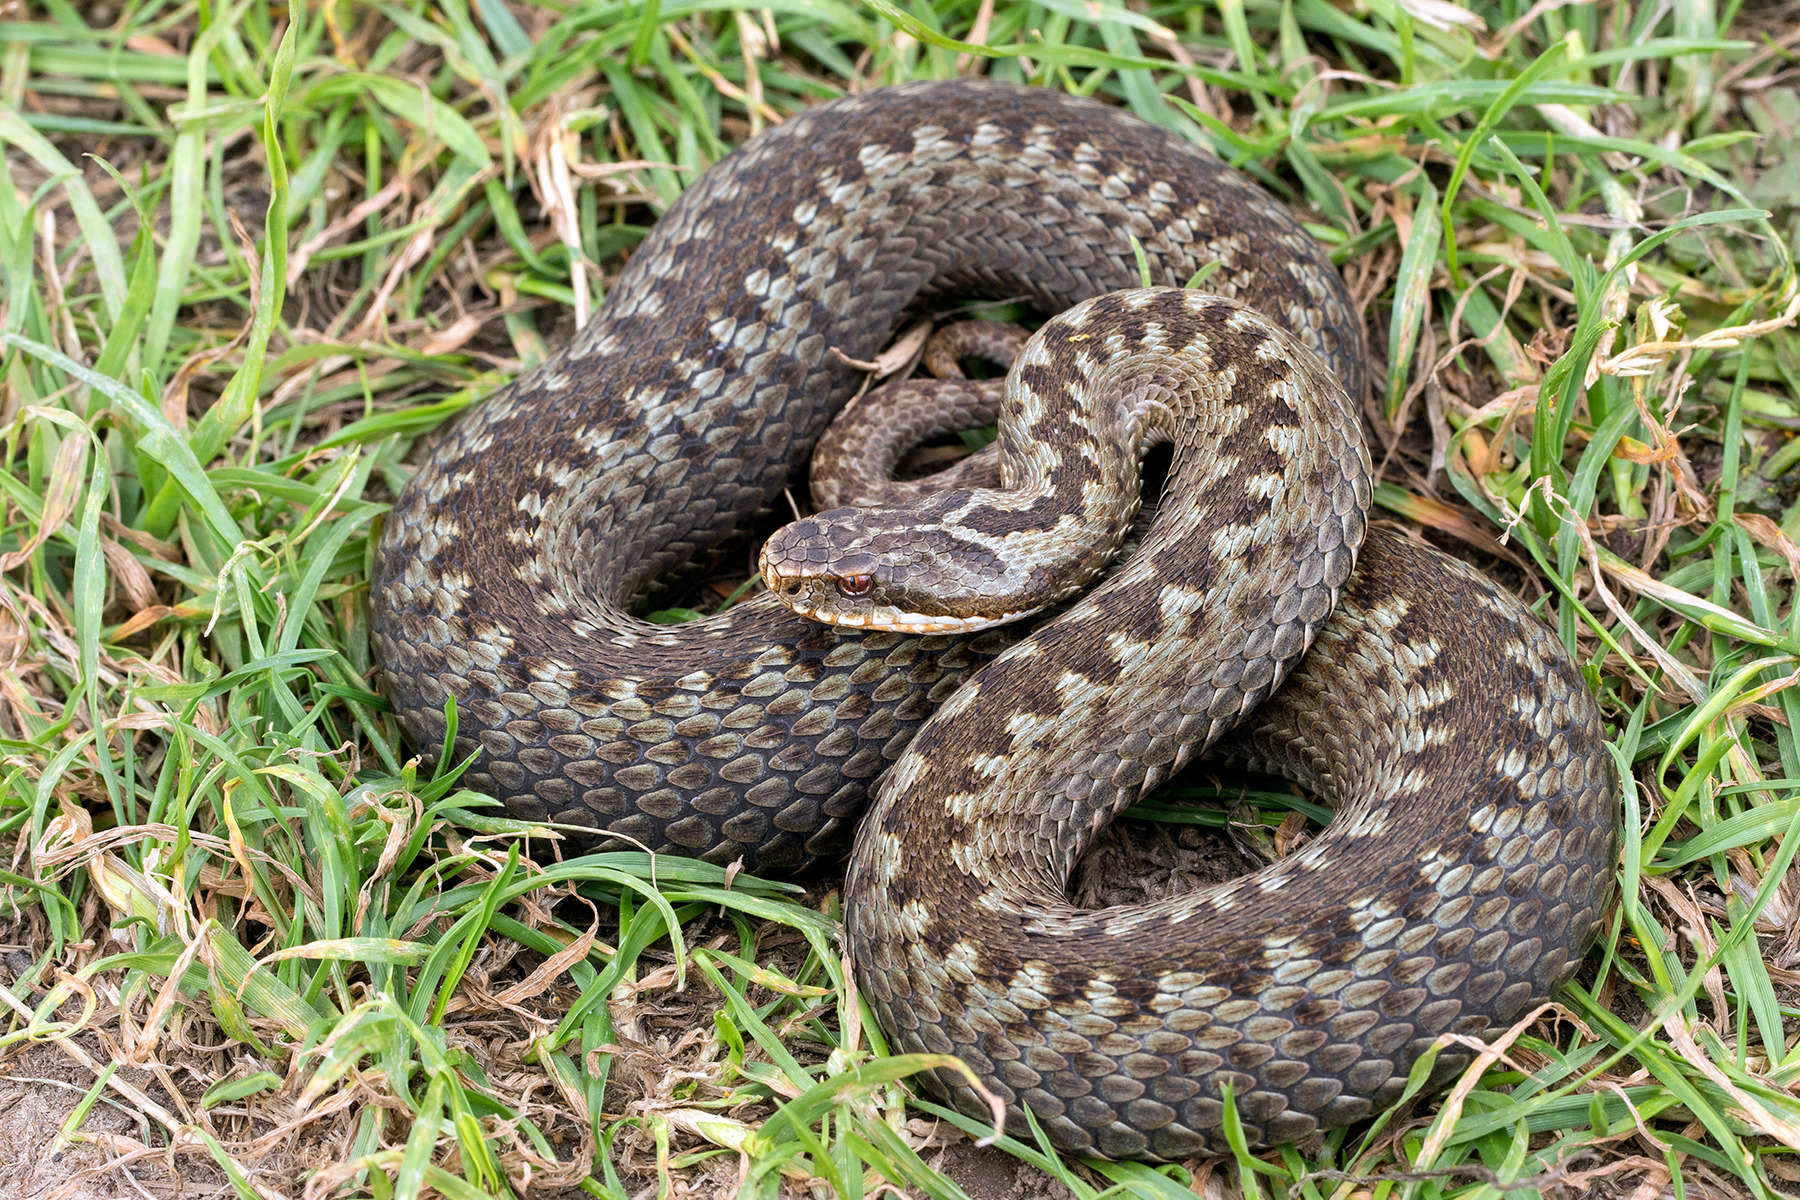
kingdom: Animalia
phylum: Chordata
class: Squamata
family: Viperidae
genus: Vipera
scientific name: Vipera berus
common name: Hugorm
